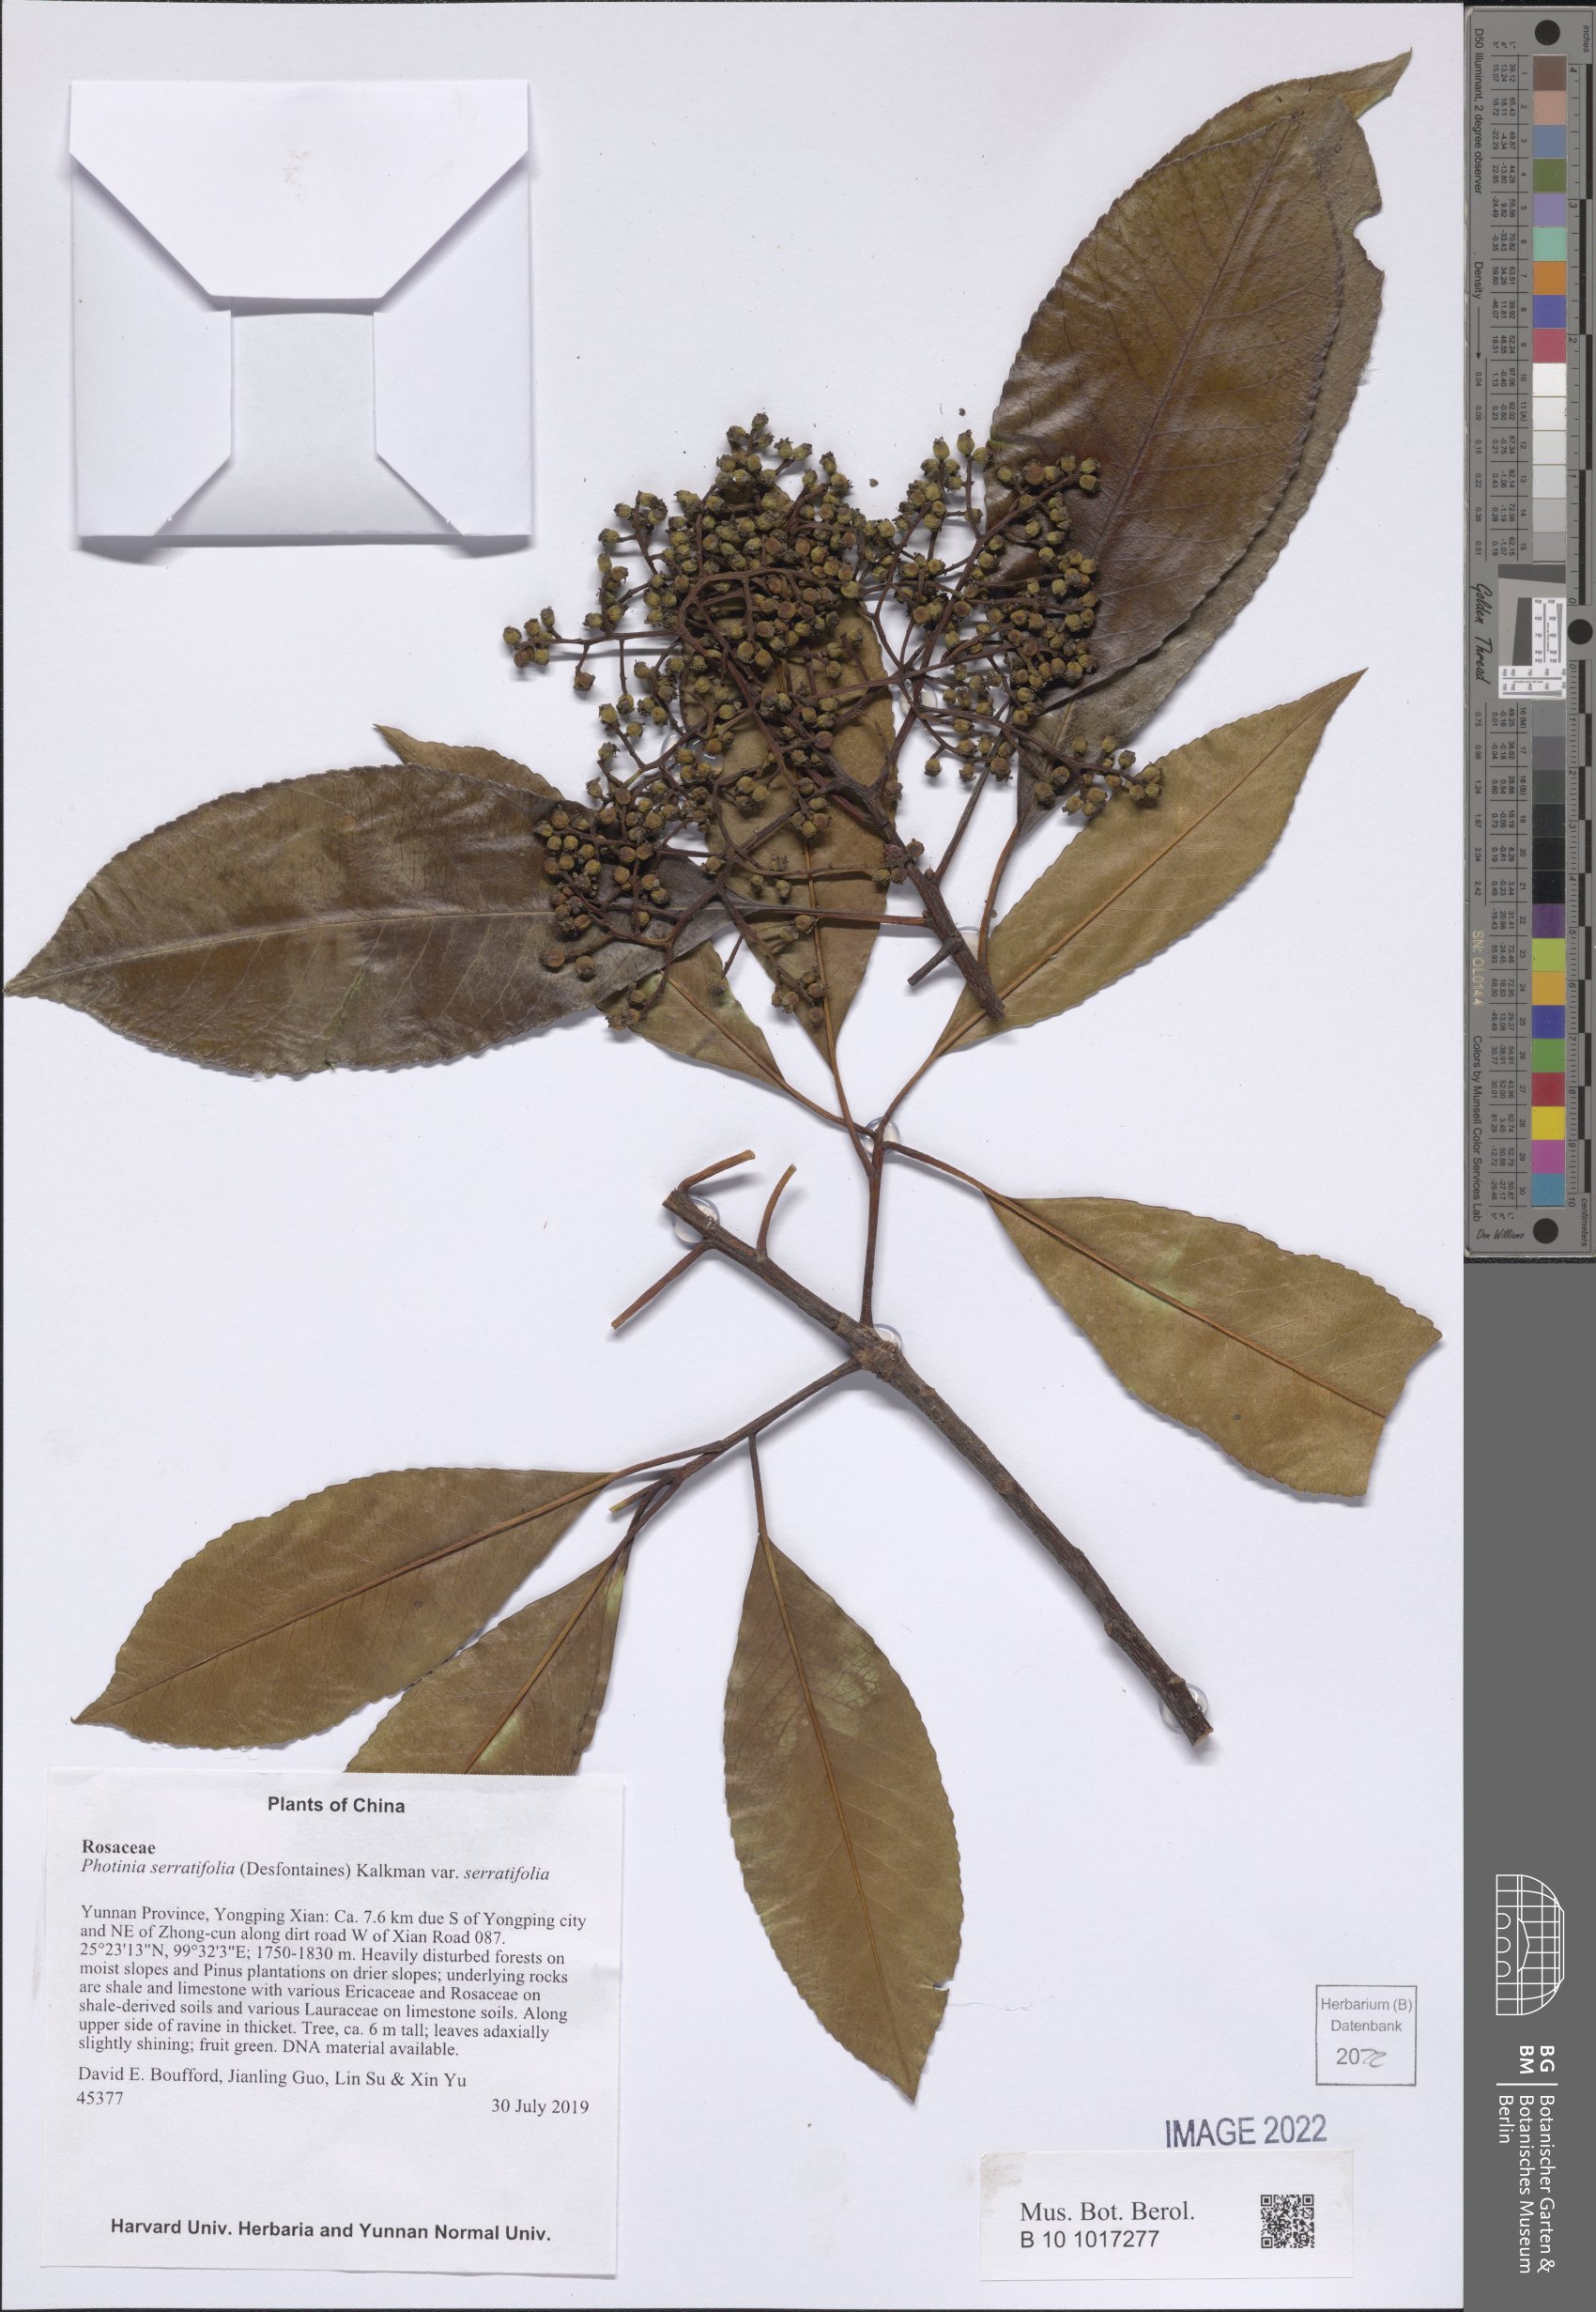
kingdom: Plantae
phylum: Tracheophyta
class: Magnoliopsida
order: Rosales
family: Rosaceae
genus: Photinia
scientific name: Photinia serratifolia
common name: Taiwanese photinia
